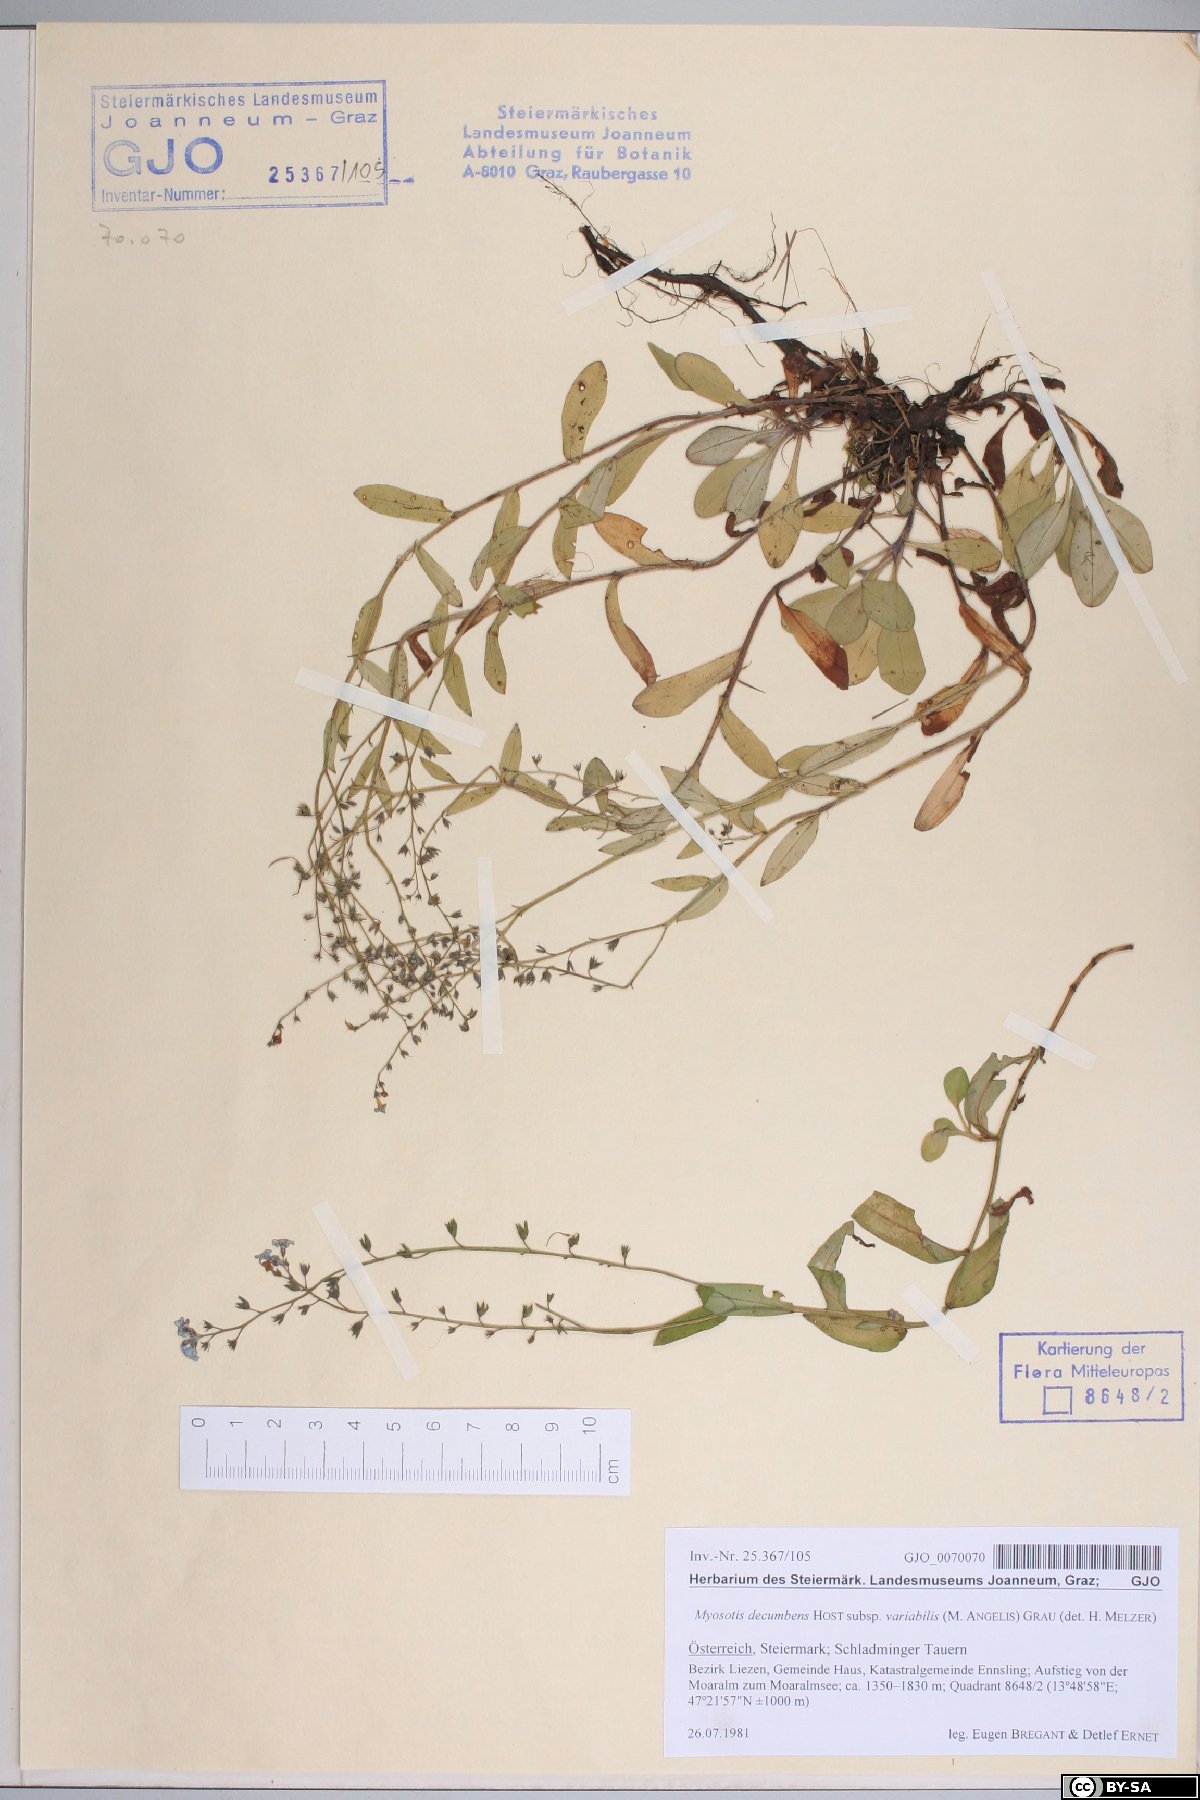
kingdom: Plantae
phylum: Tracheophyta
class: Magnoliopsida
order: Boraginales
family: Boraginaceae
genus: Myosotis
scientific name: Myosotis decumbens
